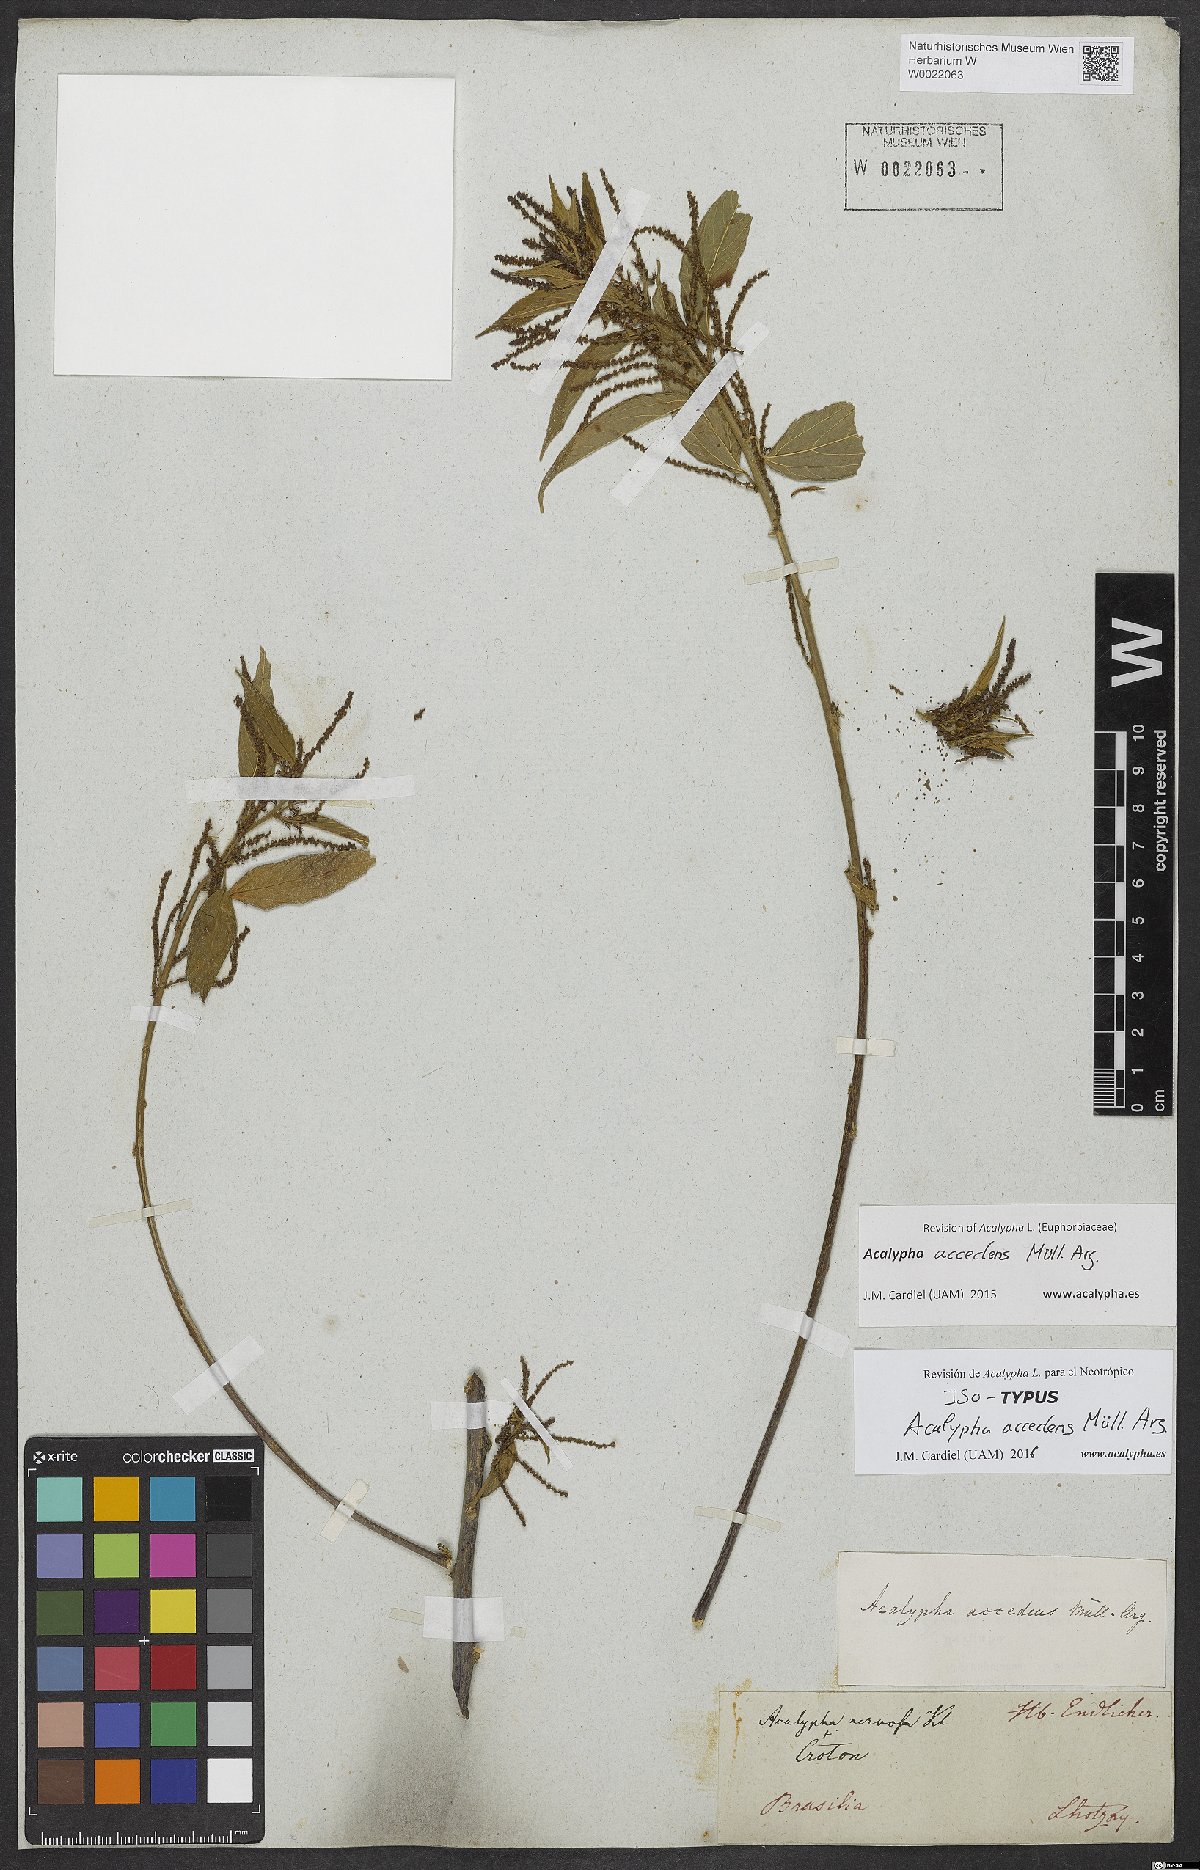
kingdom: Plantae
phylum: Tracheophyta
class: Magnoliopsida
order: Malpighiales
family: Euphorbiaceae
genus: Acalypha
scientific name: Acalypha accedens
